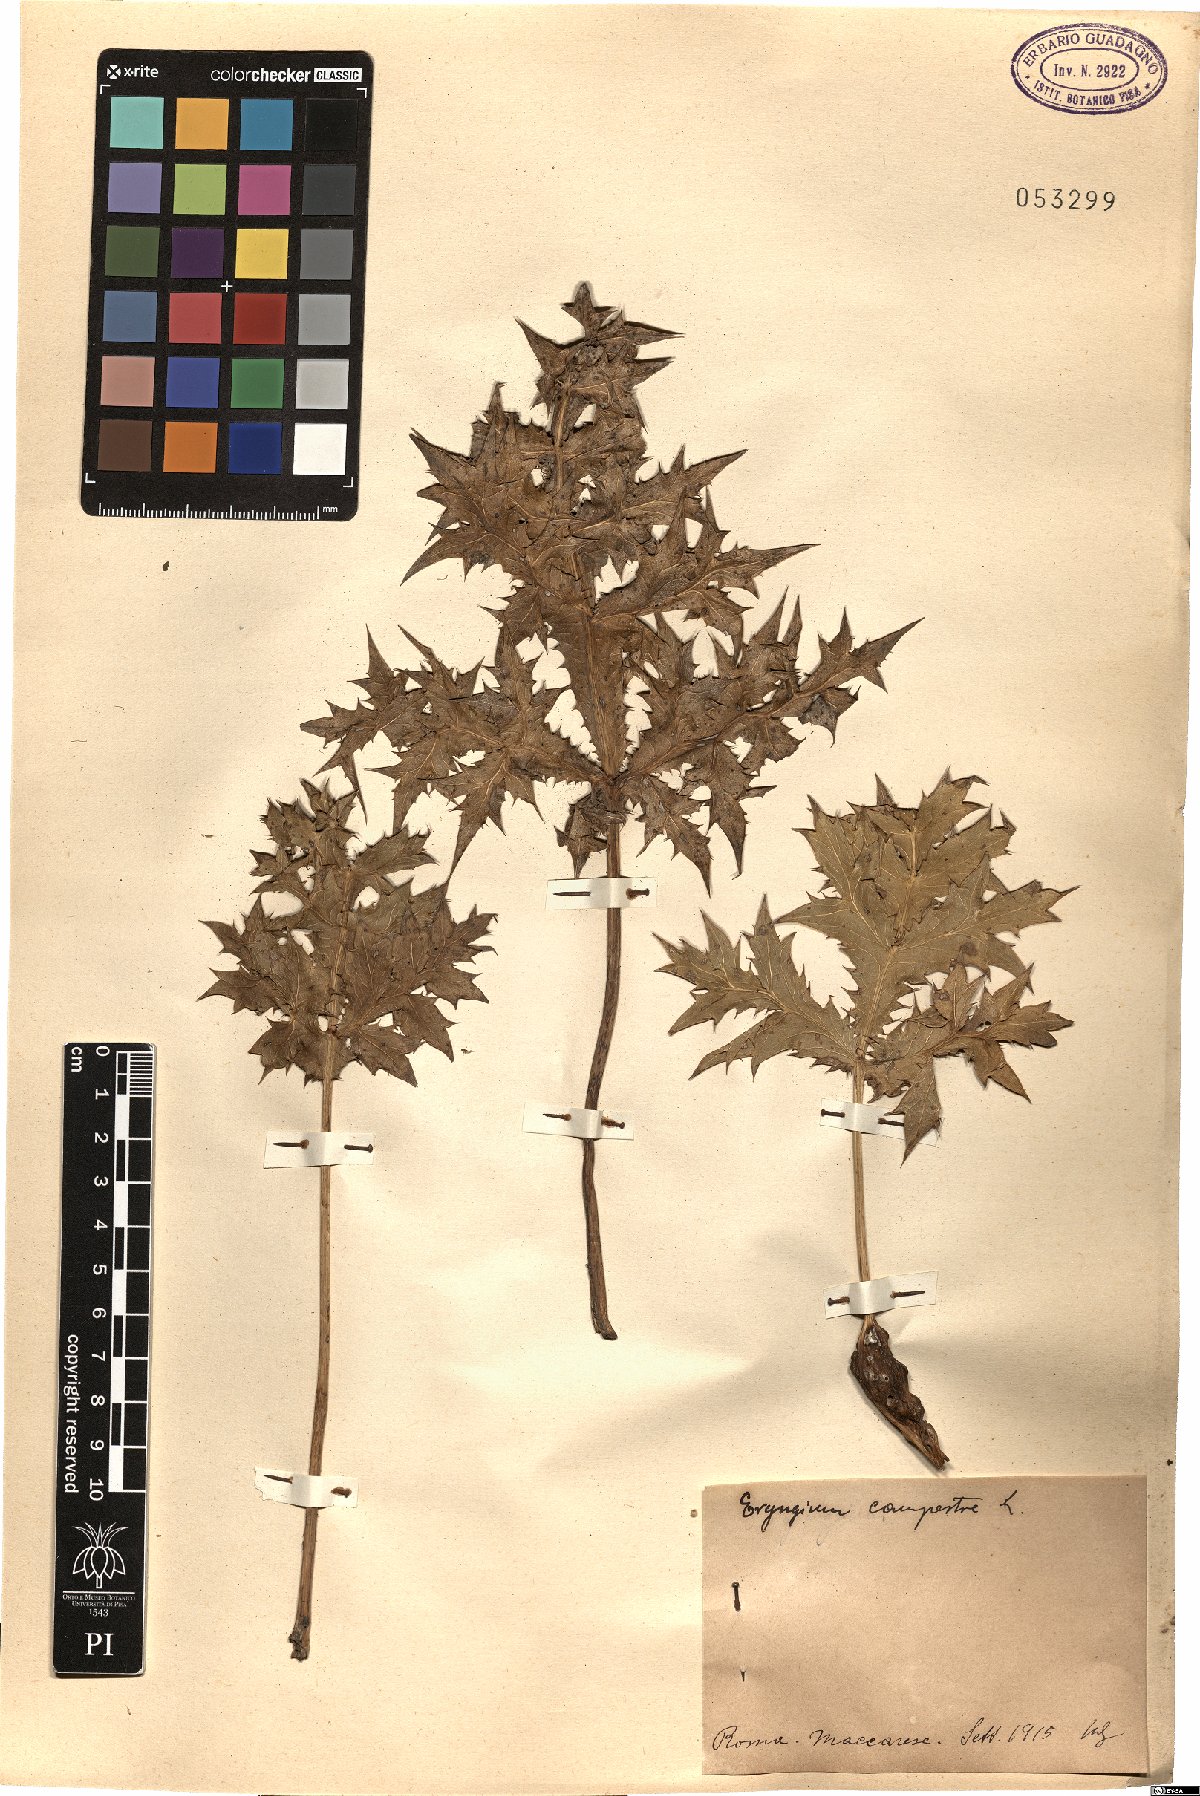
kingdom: Plantae
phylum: Tracheophyta
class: Magnoliopsida
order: Apiales
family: Apiaceae
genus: Eryngium
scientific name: Eryngium campestre
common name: Field eryngo
